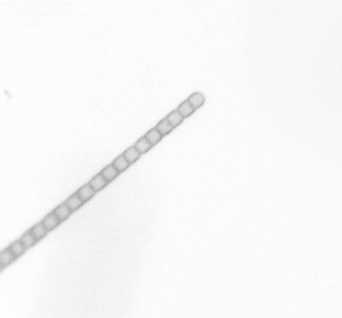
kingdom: Chromista
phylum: Ochrophyta
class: Bacillariophyceae
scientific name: Bacillariophyceae
